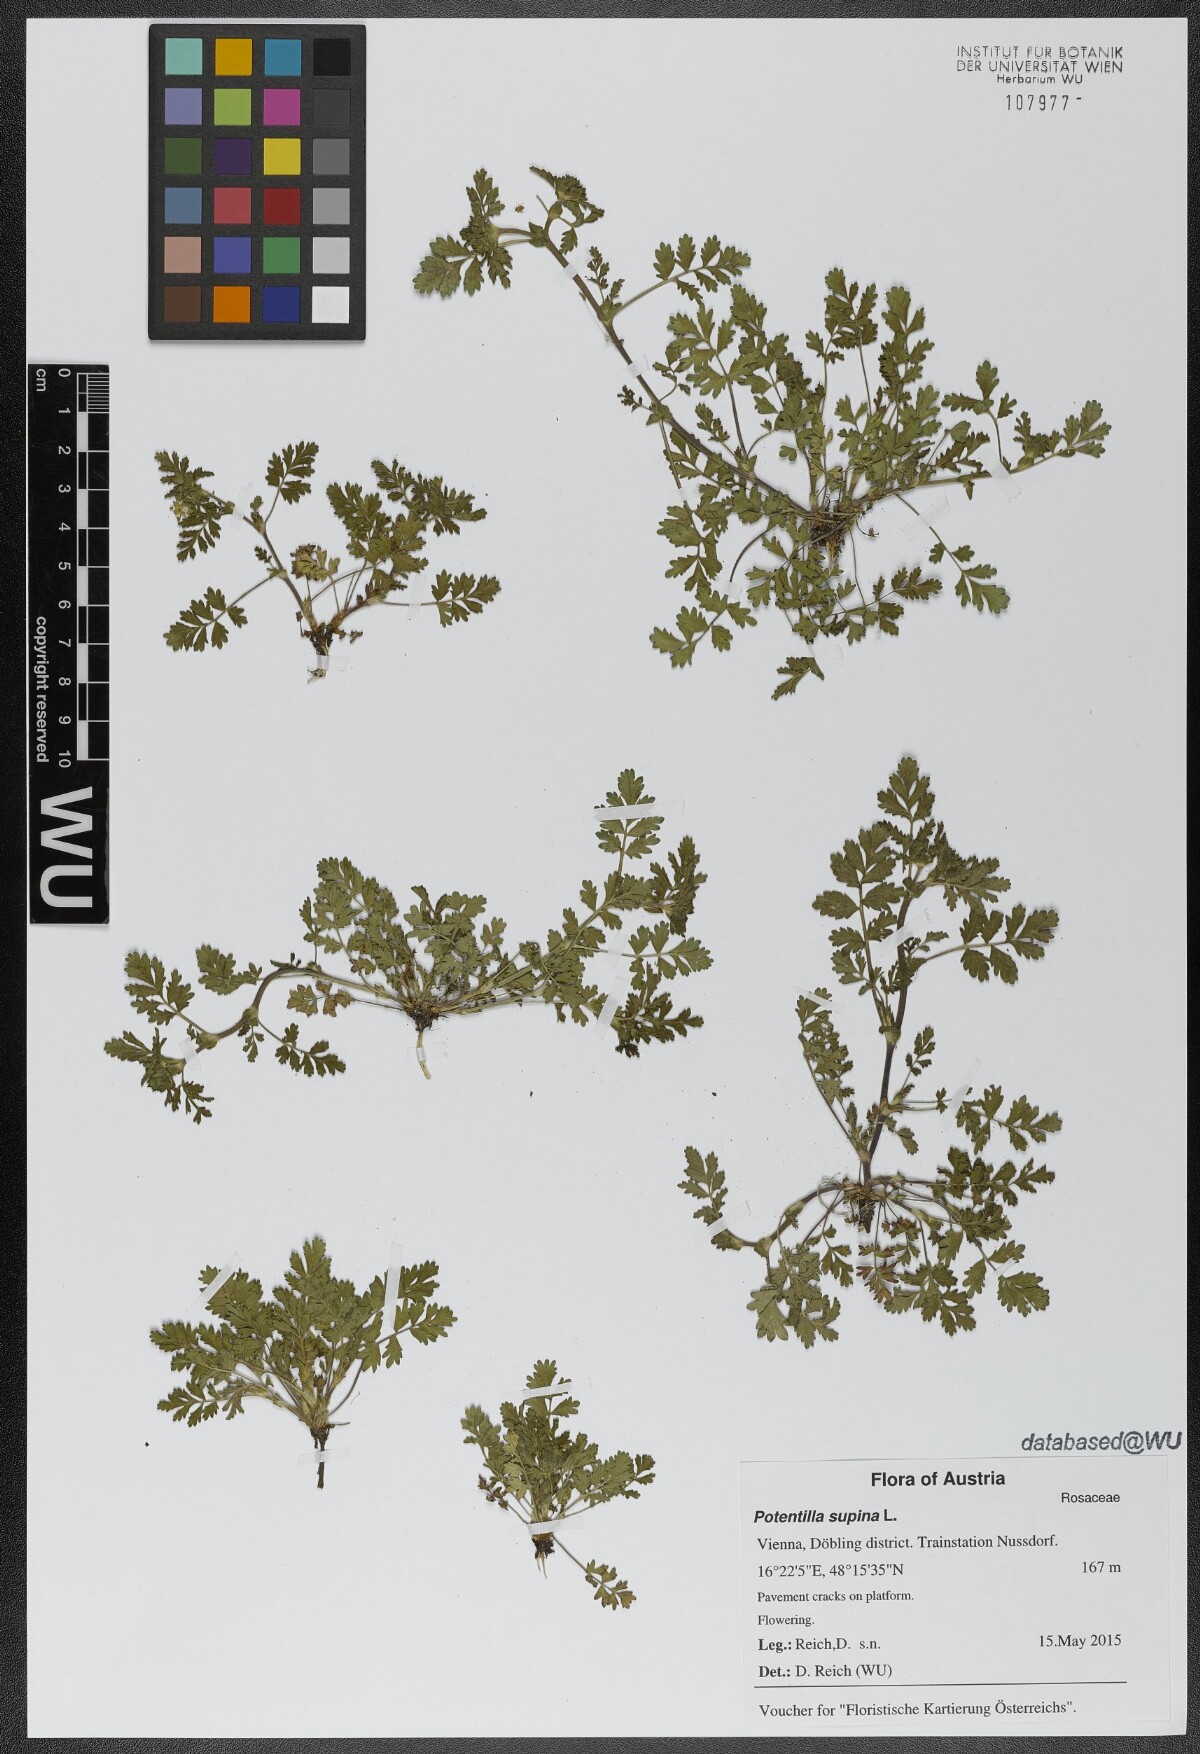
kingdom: Plantae
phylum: Tracheophyta
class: Magnoliopsida
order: Rosales
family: Rosaceae
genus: Potentilla
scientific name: Potentilla supina
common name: Prostrate cinquefoil
